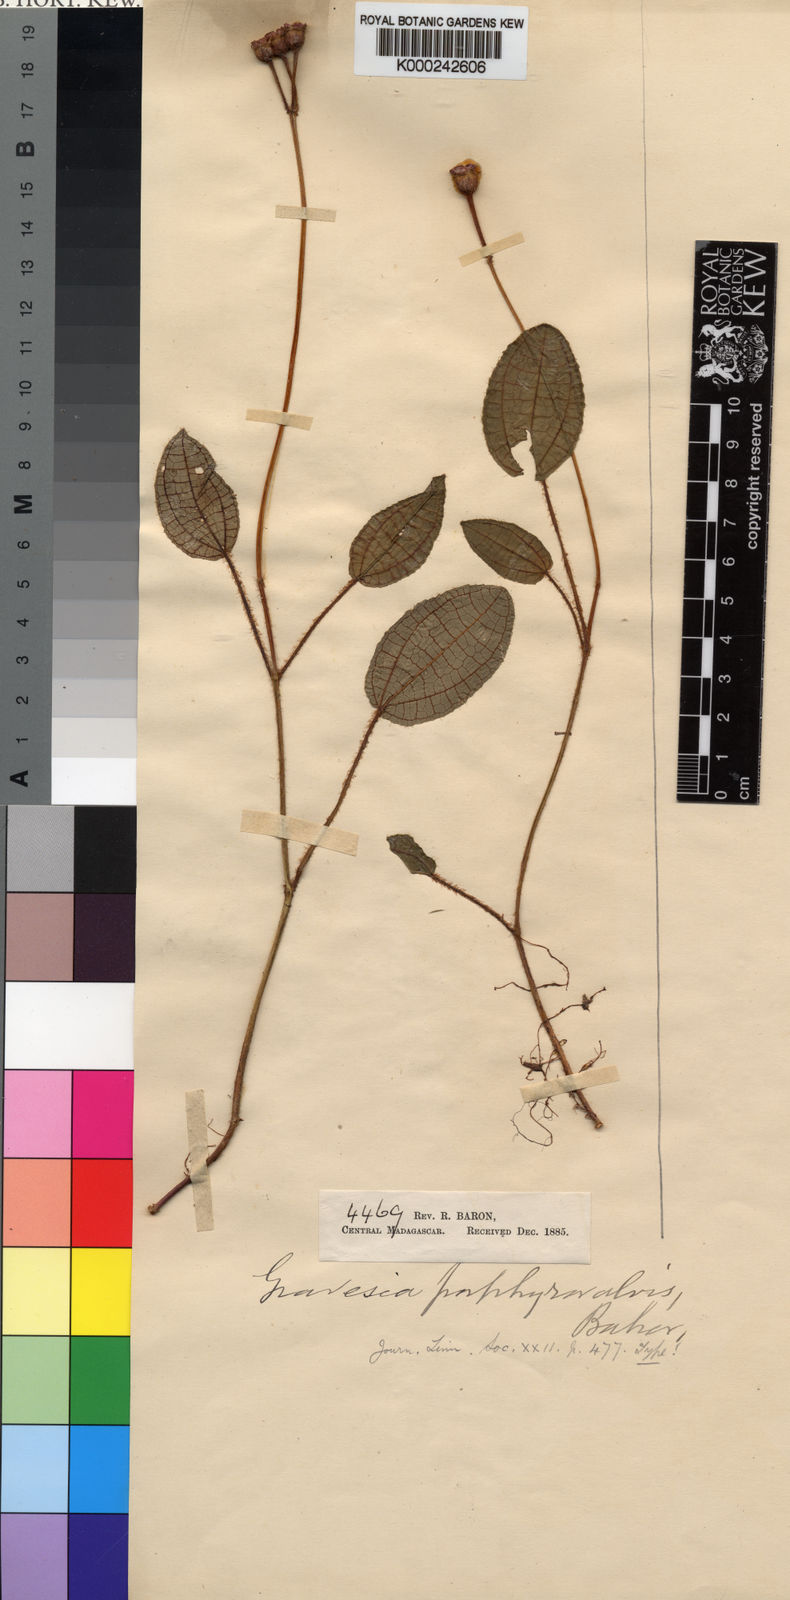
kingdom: Plantae
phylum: Tracheophyta
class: Magnoliopsida
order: Myrtales
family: Melastomataceae
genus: Gravesia
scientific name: Gravesia porphyrovalvis
